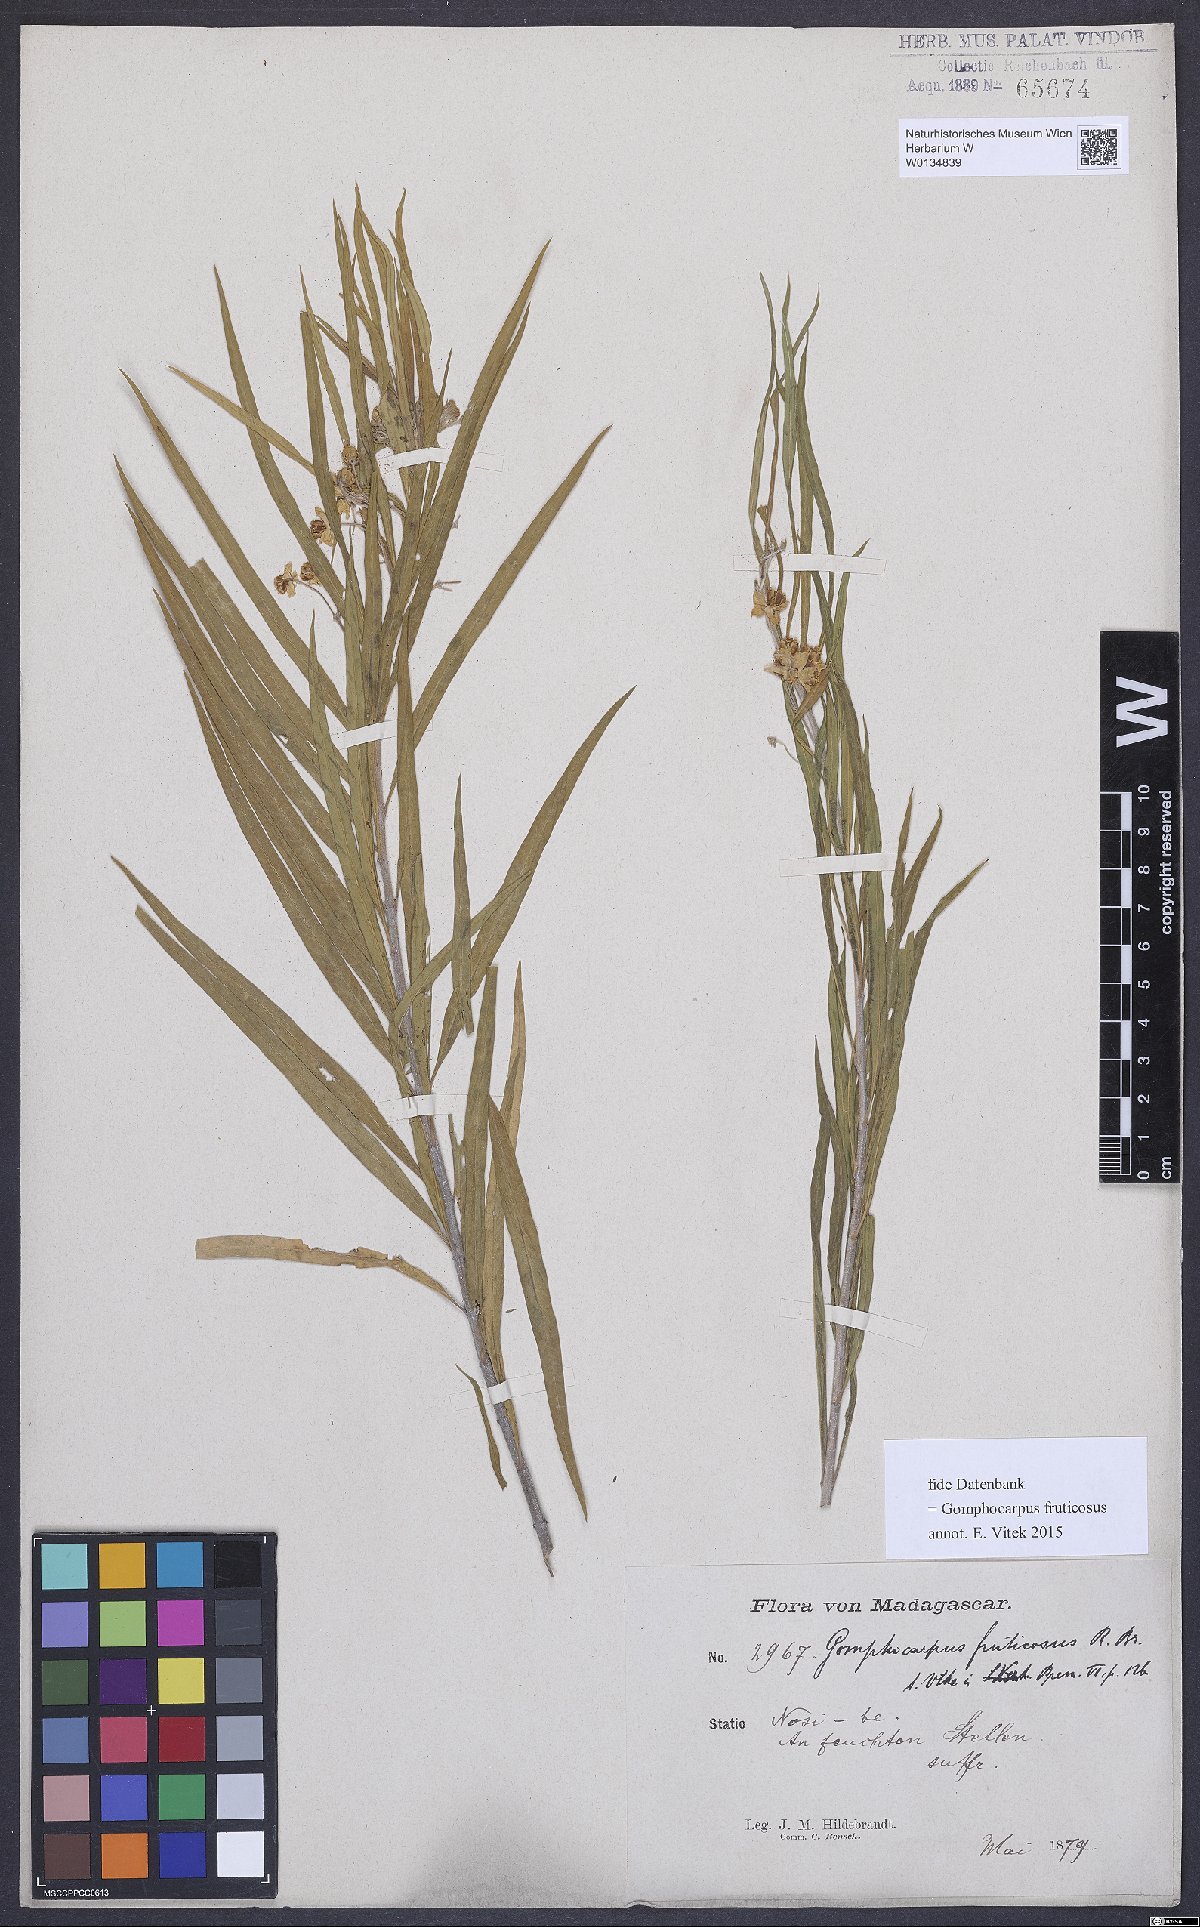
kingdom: Plantae
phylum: Tracheophyta
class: Magnoliopsida
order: Gentianales
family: Apocynaceae
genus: Gomphocarpus
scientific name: Gomphocarpus fruticosus
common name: Milkweed
